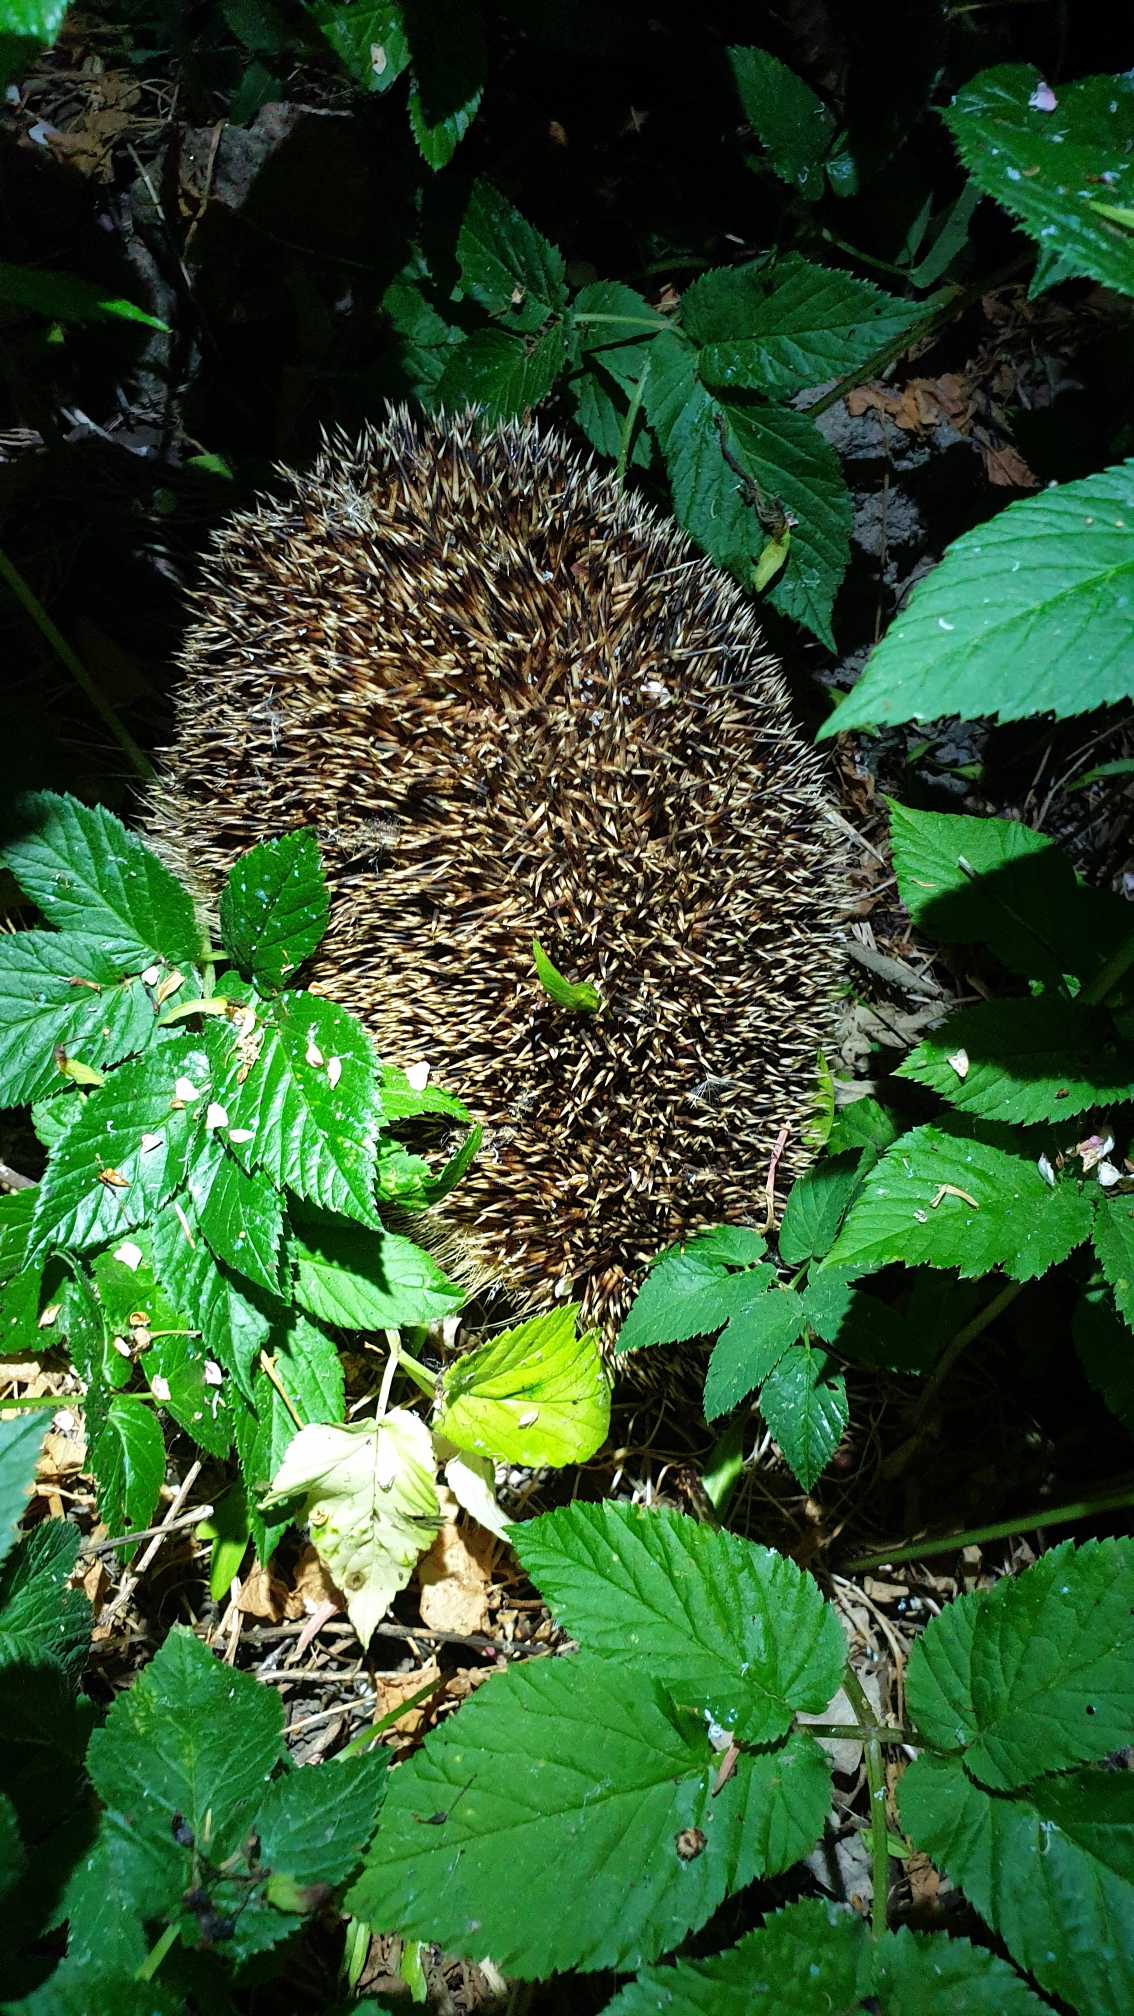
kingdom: Animalia
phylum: Chordata
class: Mammalia
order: Erinaceomorpha
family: Erinaceidae
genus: Erinaceus
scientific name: Erinaceus europaeus
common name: Pindsvin
